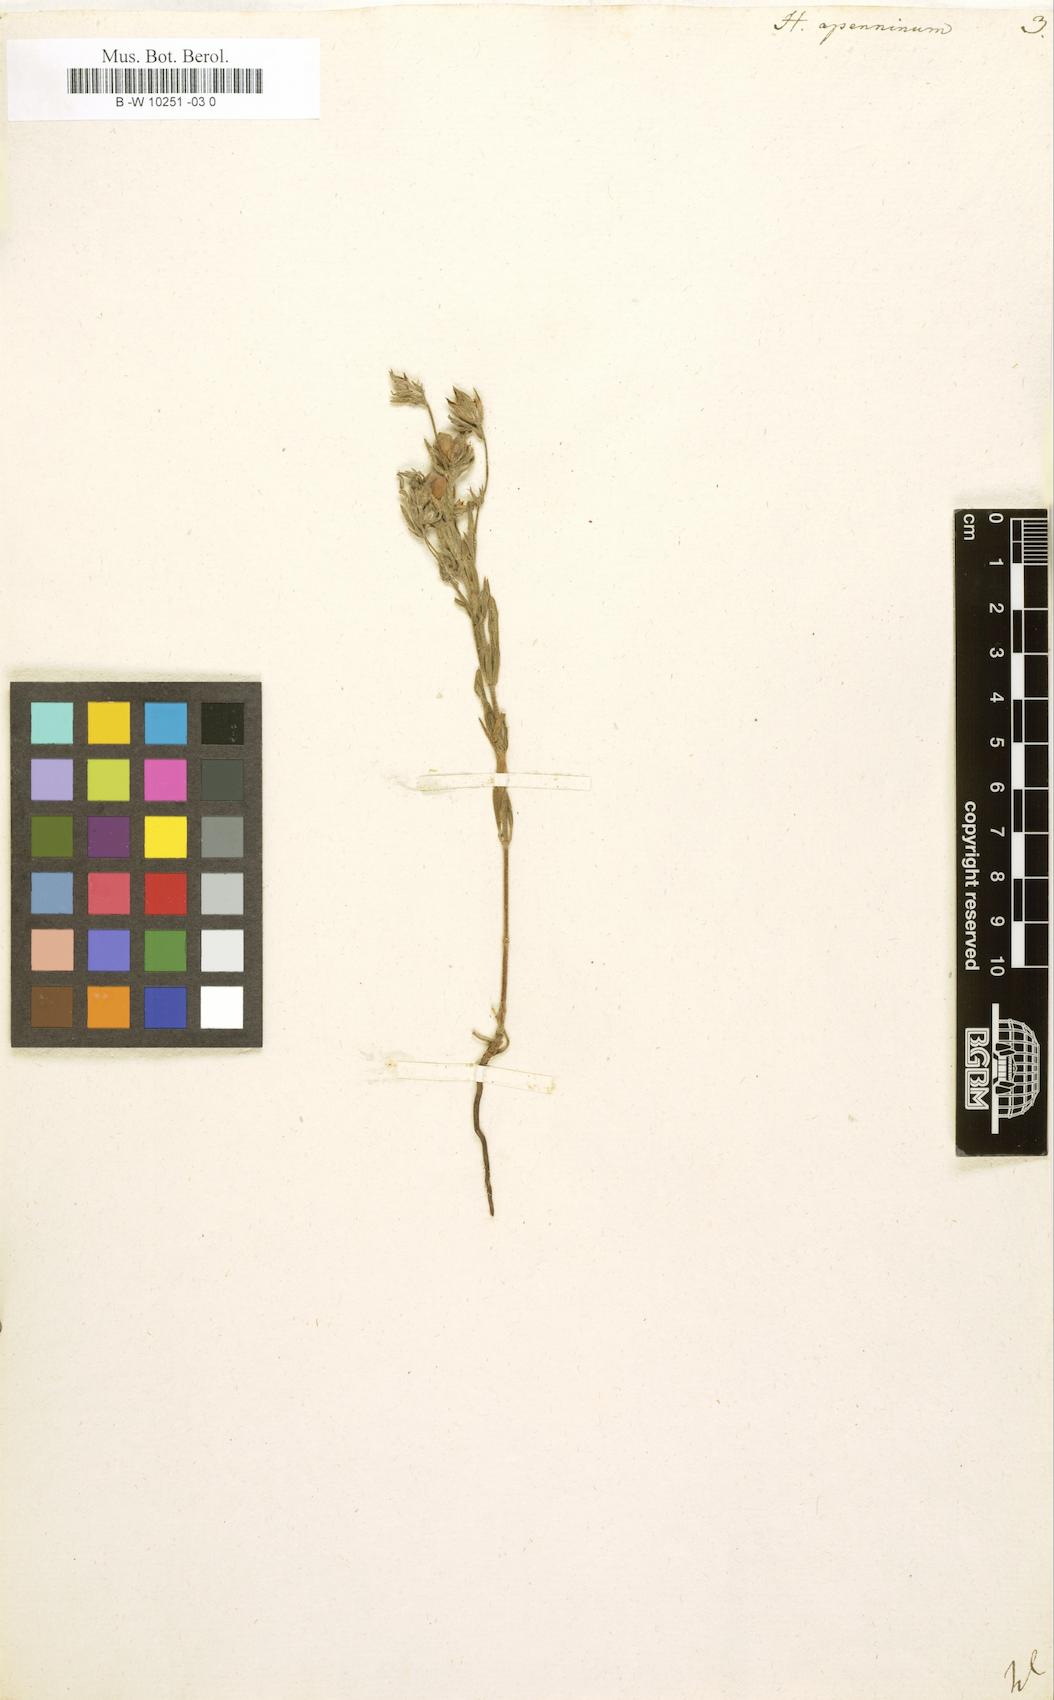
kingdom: Plantae
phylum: Tracheophyta
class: Magnoliopsida
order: Malvales
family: Cistaceae
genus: Helianthemum
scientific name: Helianthemum apenninum
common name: White rock-rose
